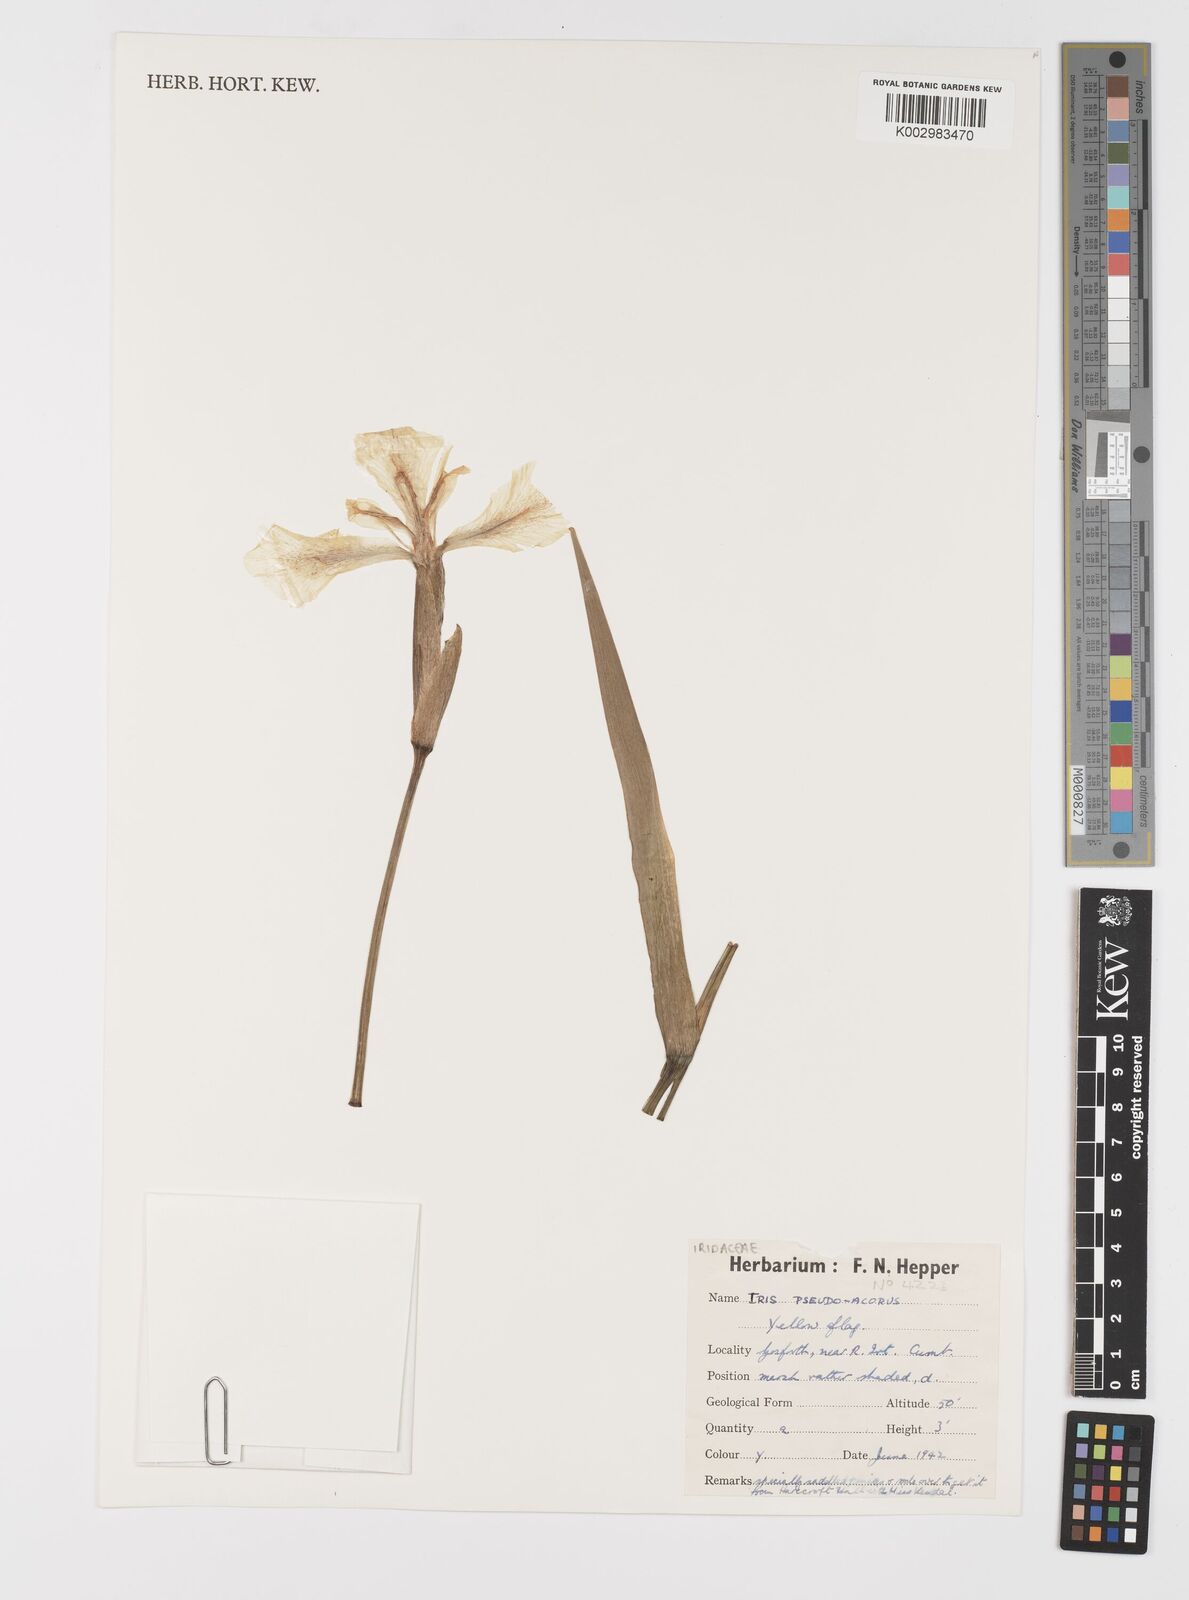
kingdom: Plantae
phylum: Tracheophyta
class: Liliopsida
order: Asparagales
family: Iridaceae
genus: Iris
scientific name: Iris pseudacorus
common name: Yellow flag
